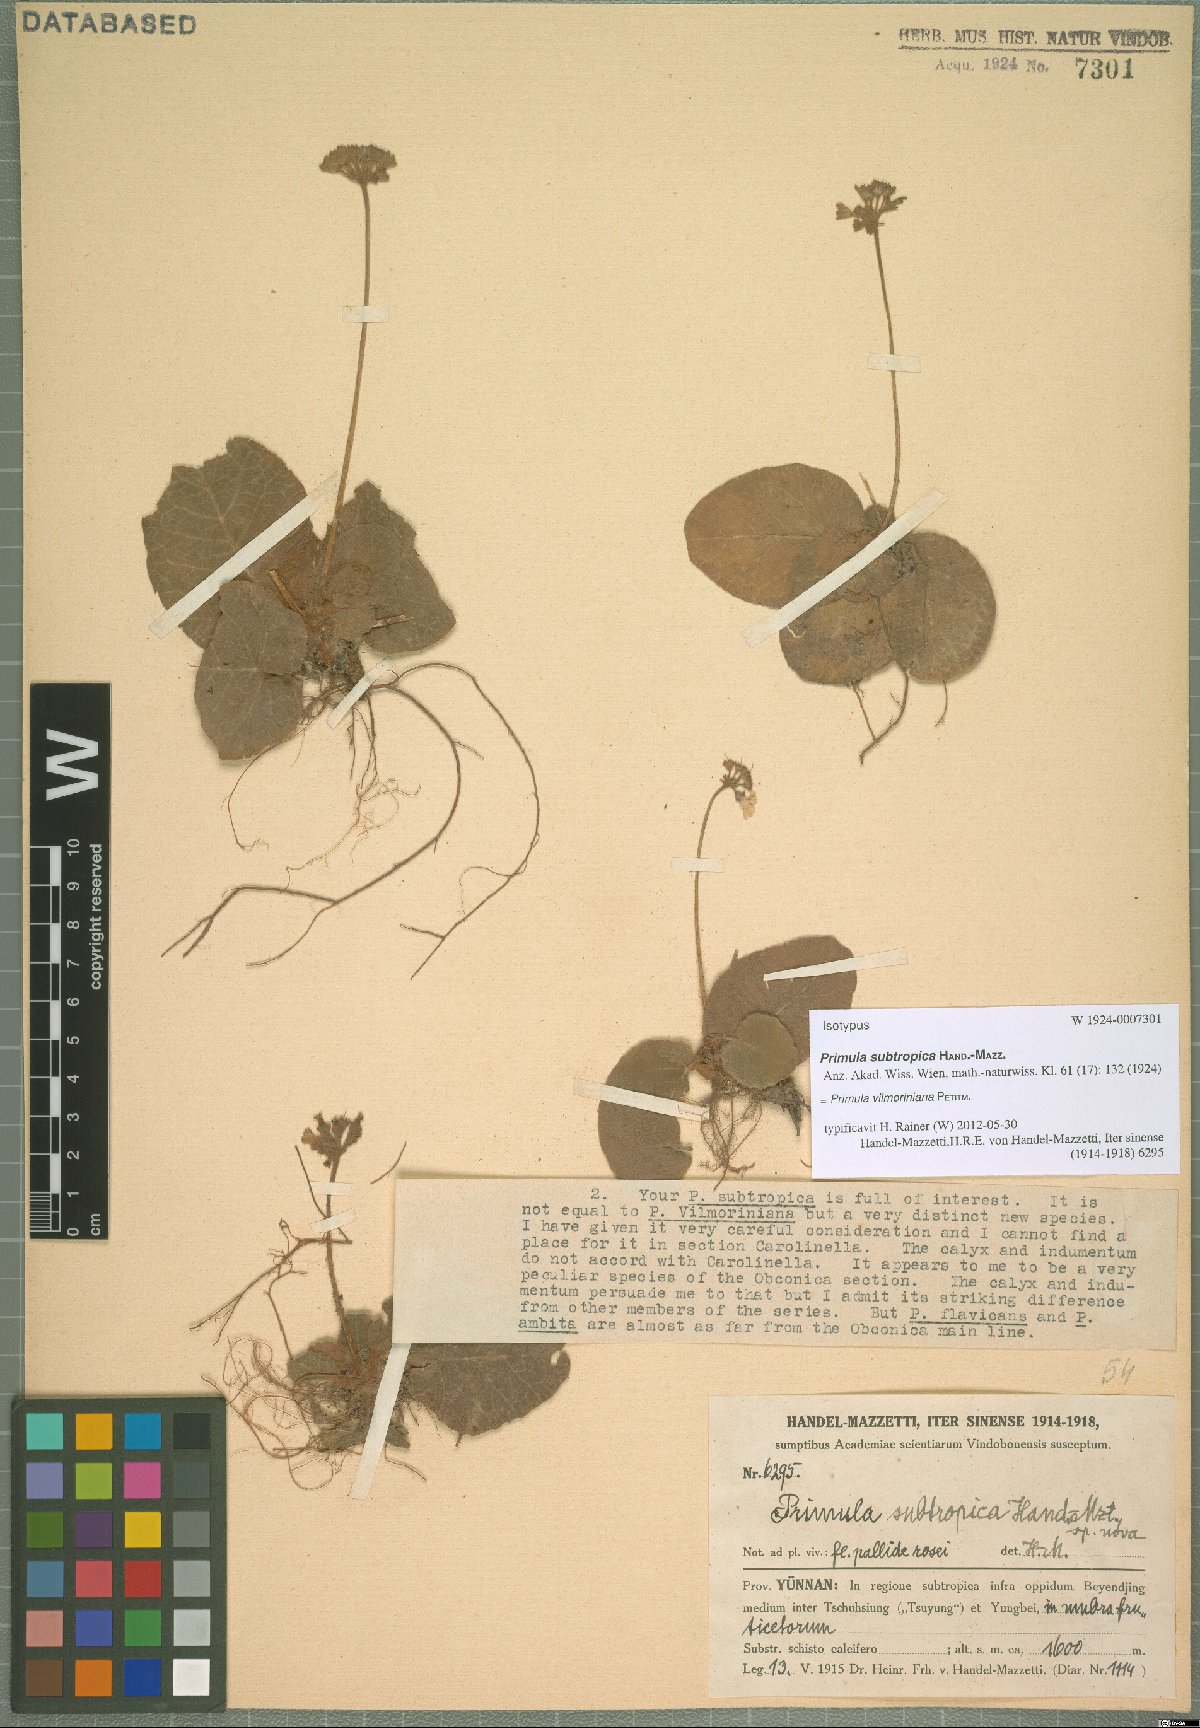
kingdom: Plantae
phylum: Tracheophyta
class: Magnoliopsida
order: Ericales
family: Primulaceae
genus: Primula
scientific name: Primula vilmoriniana
